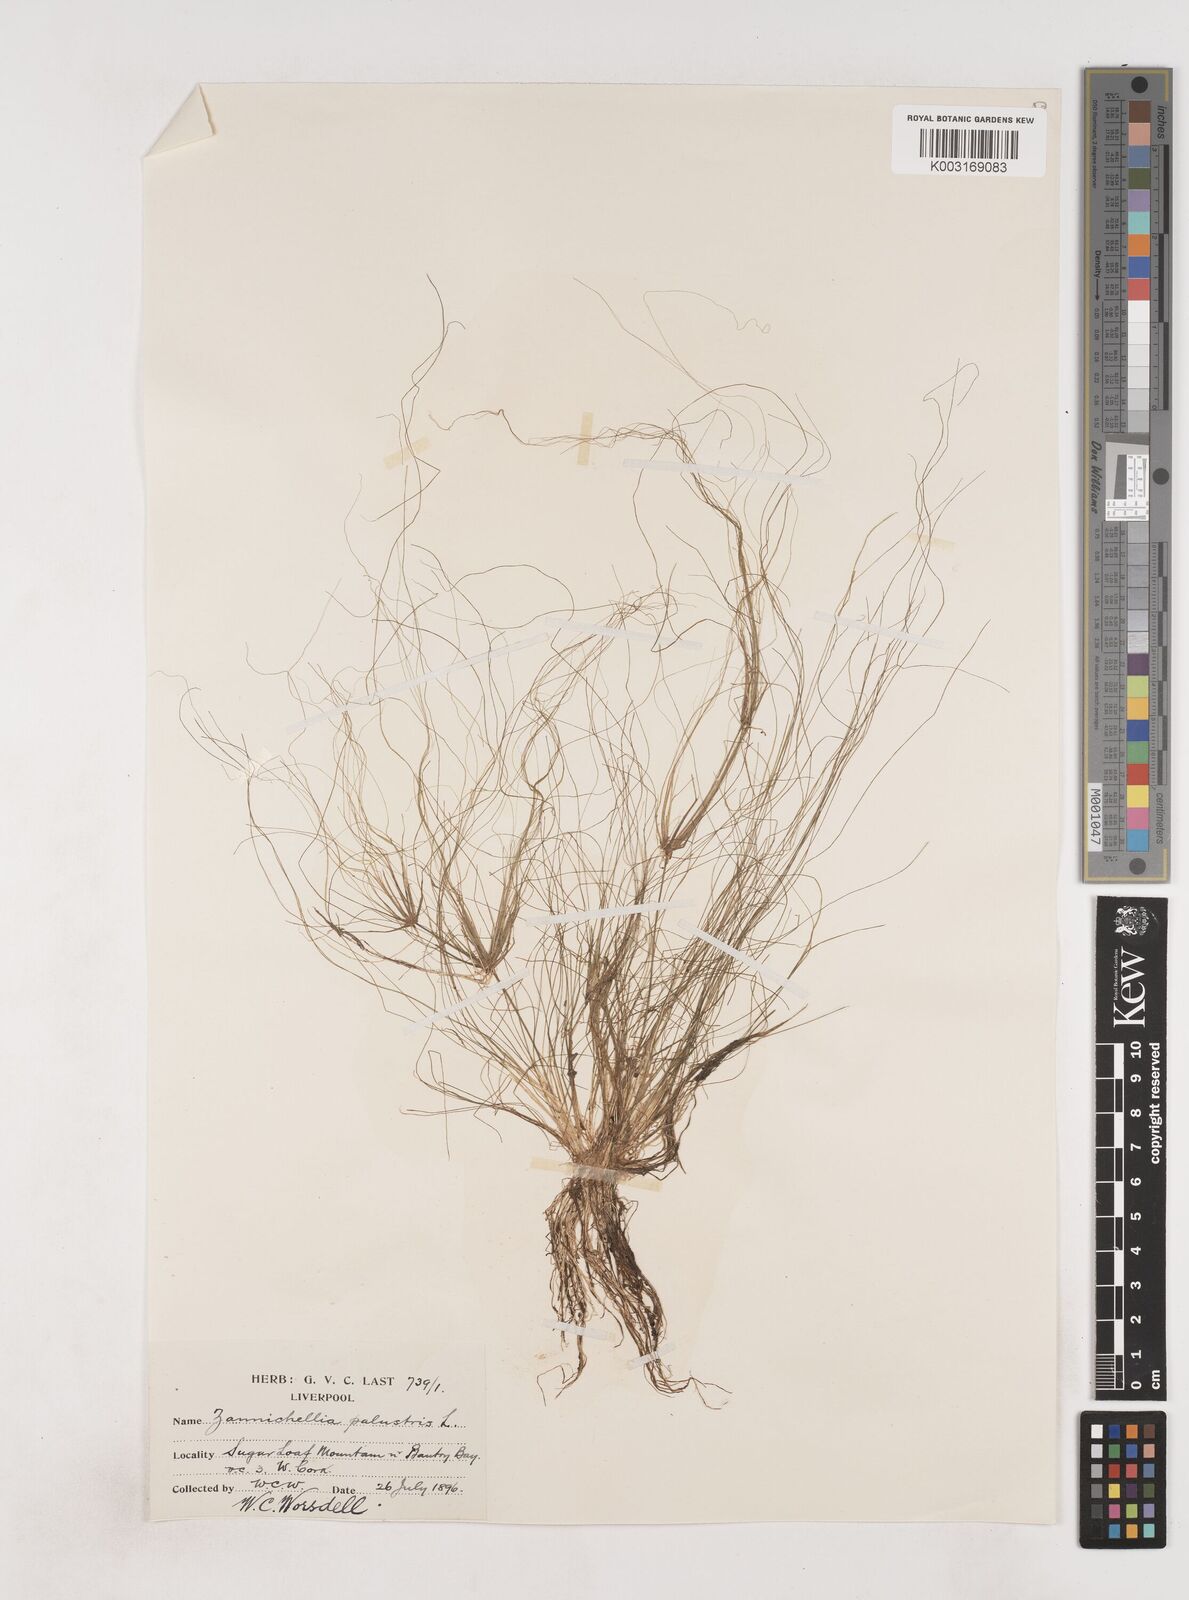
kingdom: Plantae
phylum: Tracheophyta
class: Liliopsida
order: Poales
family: Juncaceae
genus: Juncus
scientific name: Juncus bulbosus
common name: Bulbous rush
